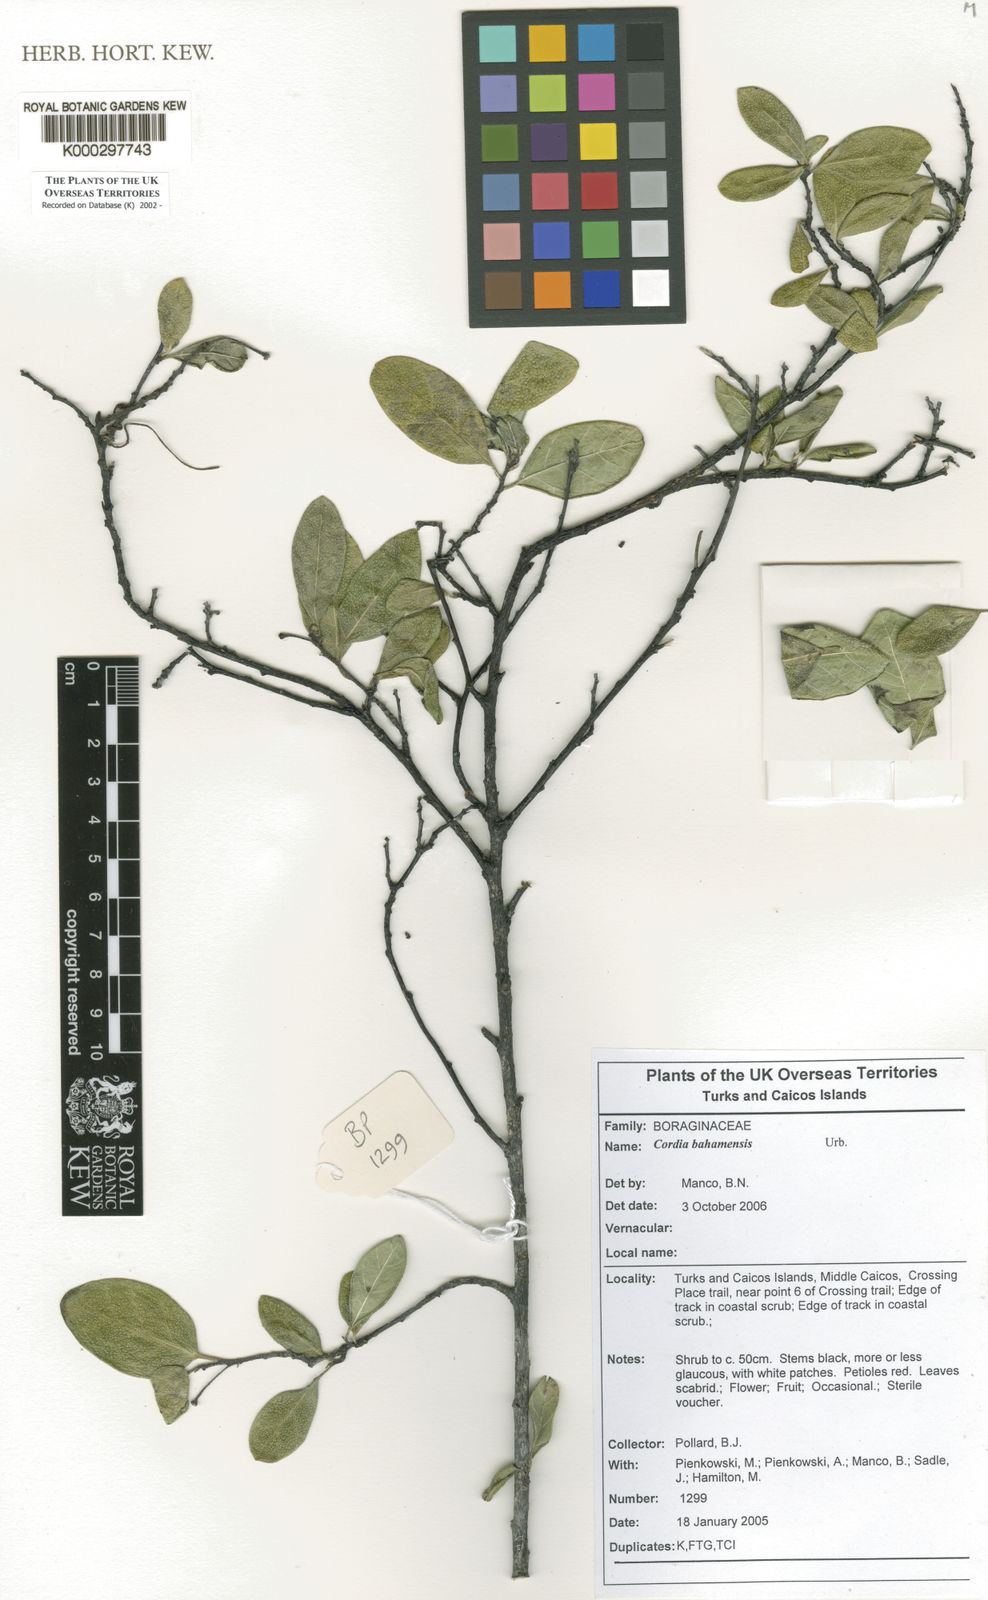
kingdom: Plantae
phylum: Tracheophyta
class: Magnoliopsida
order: Boraginales
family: Cordiaceae
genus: Varronia
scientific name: Varronia bahamensis
